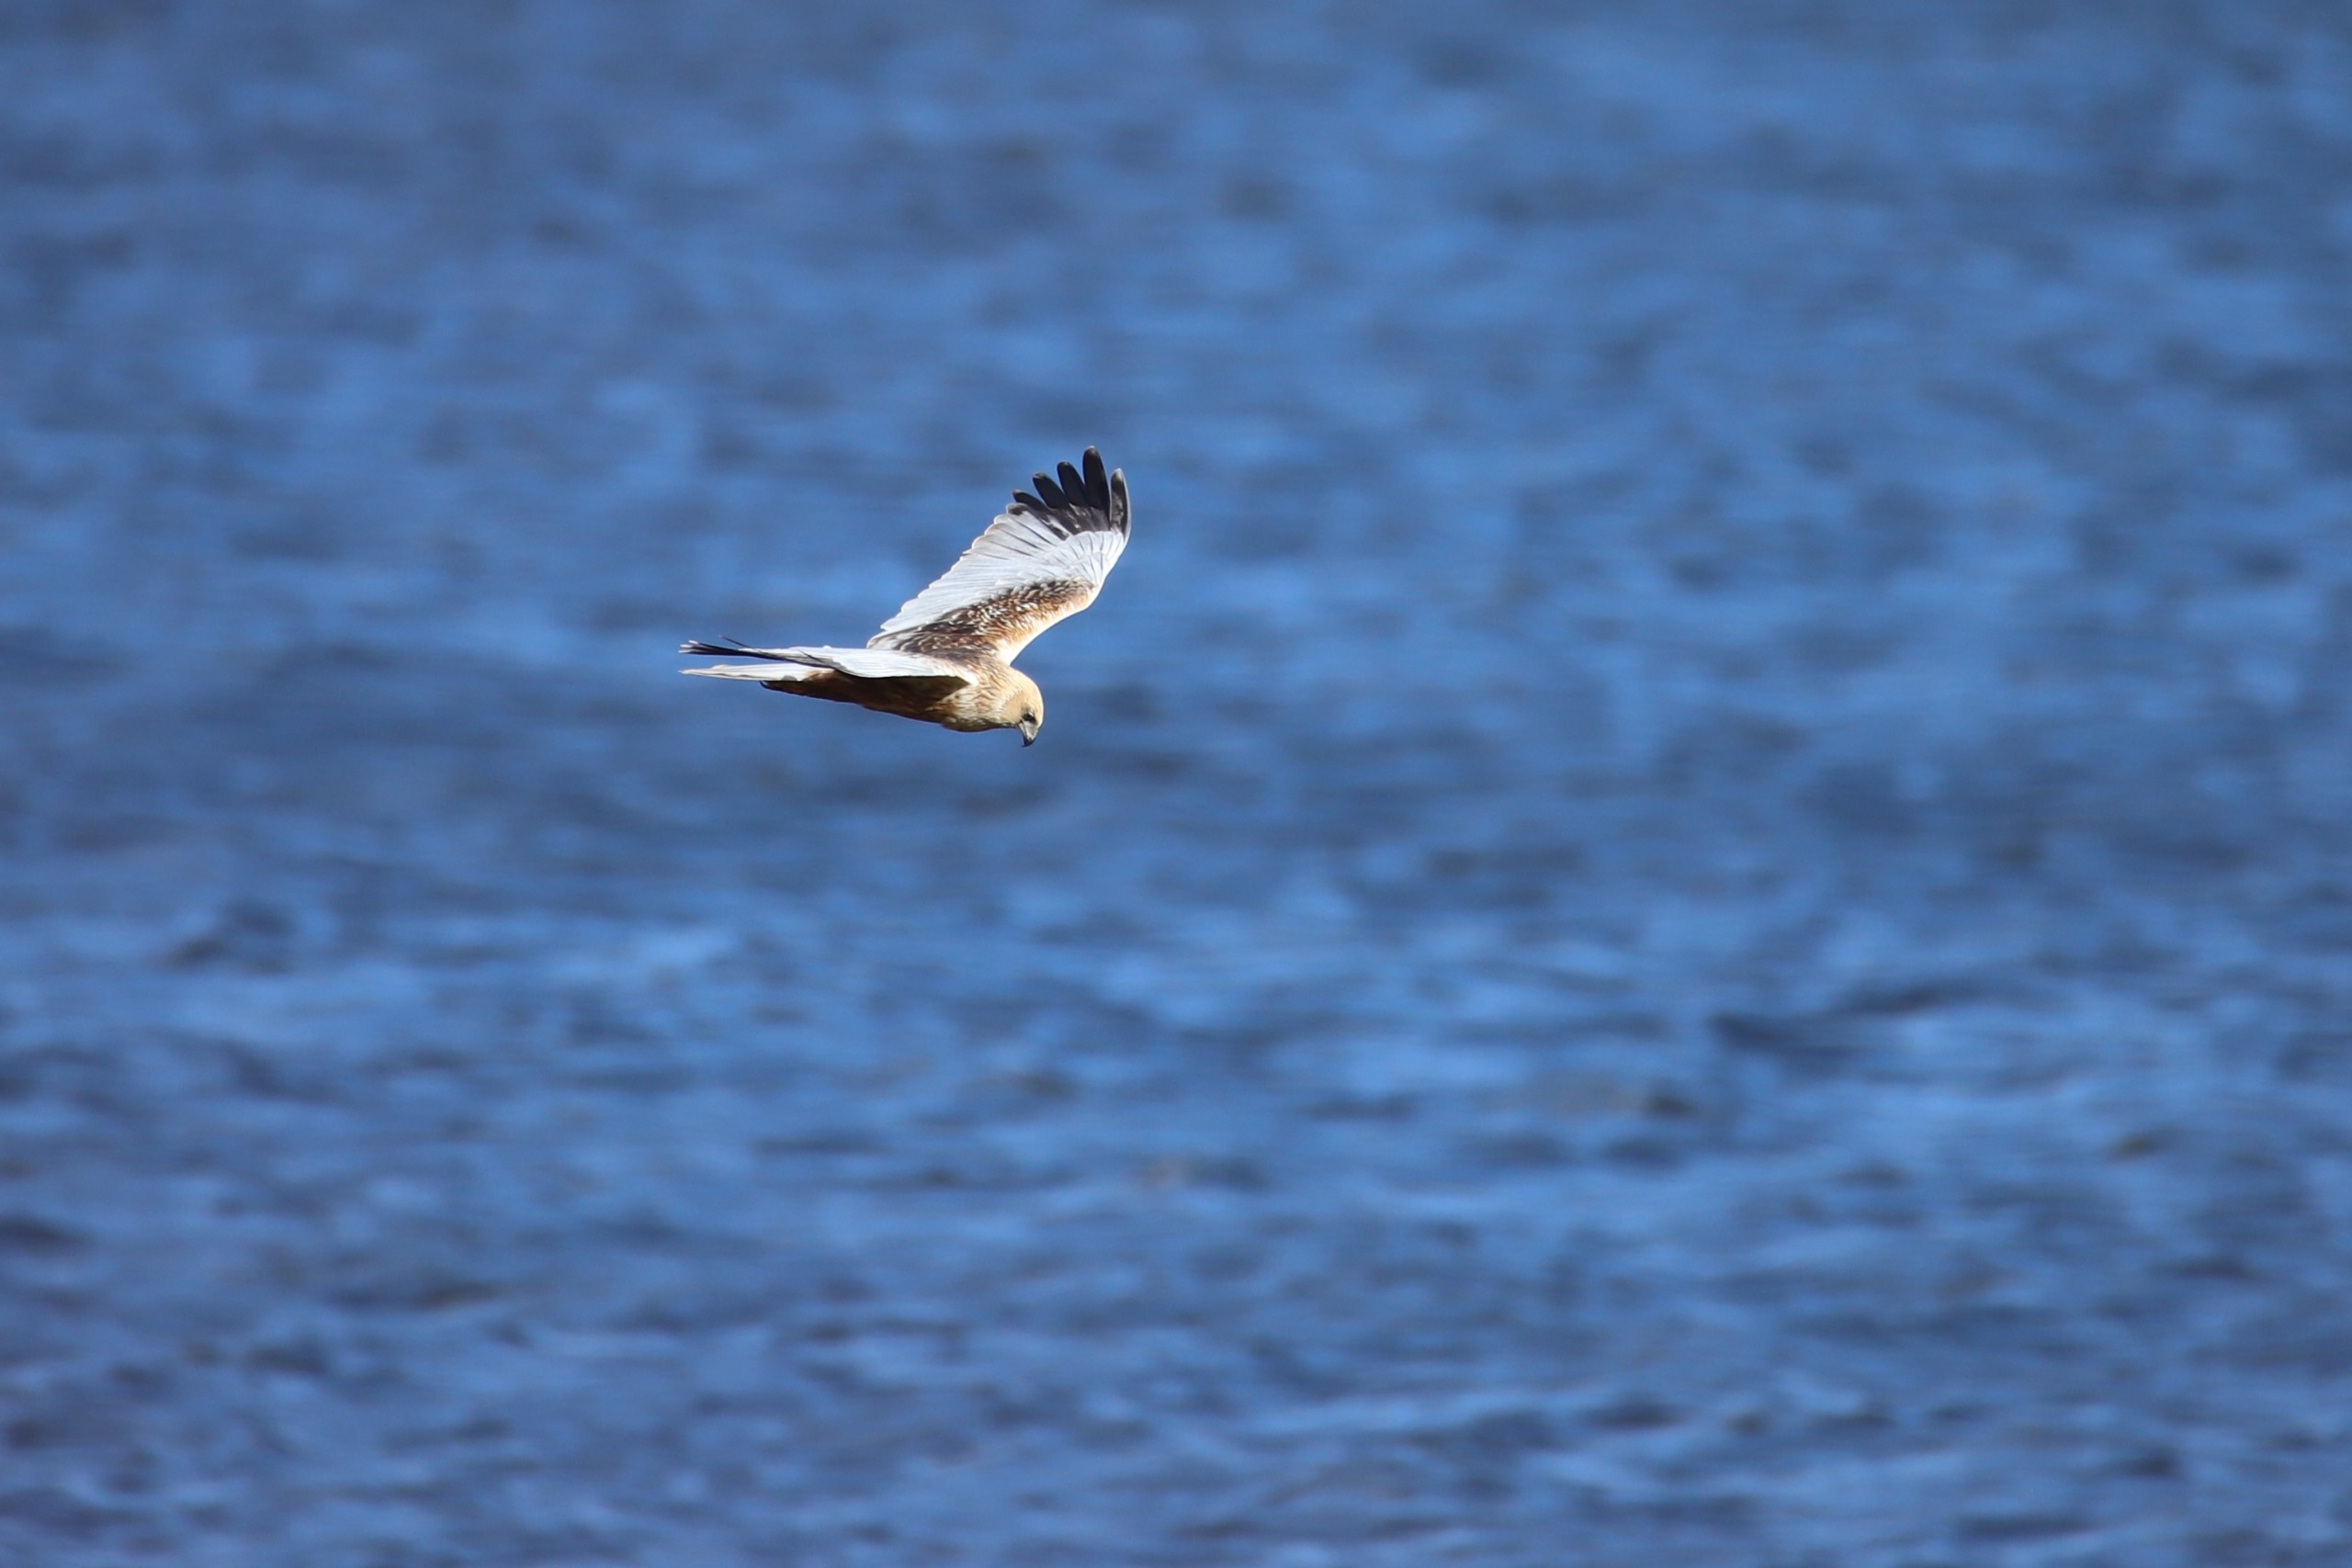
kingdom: Animalia
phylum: Chordata
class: Aves
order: Accipitriformes
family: Accipitridae
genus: Circus
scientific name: Circus aeruginosus
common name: Rørhøg
